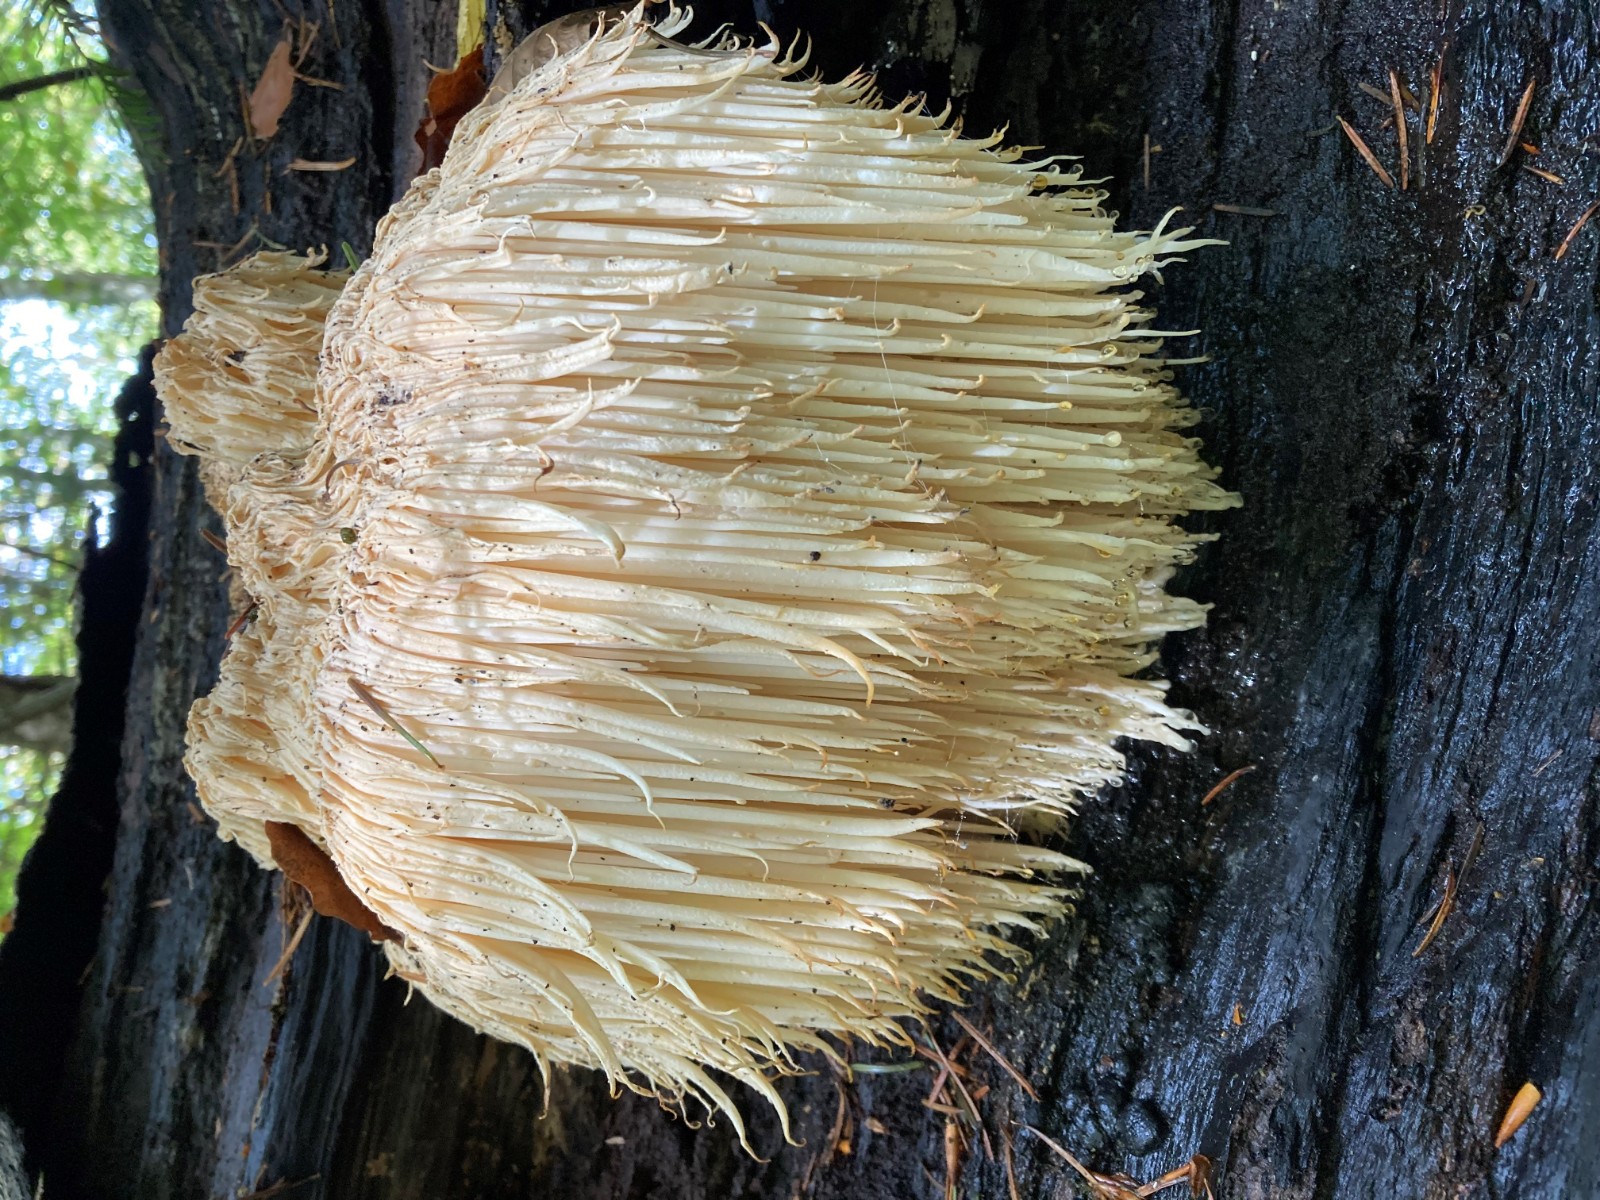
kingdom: Fungi
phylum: Basidiomycota
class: Agaricomycetes
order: Russulales
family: Hericiaceae
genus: Hericium
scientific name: Hericium erinaceus
